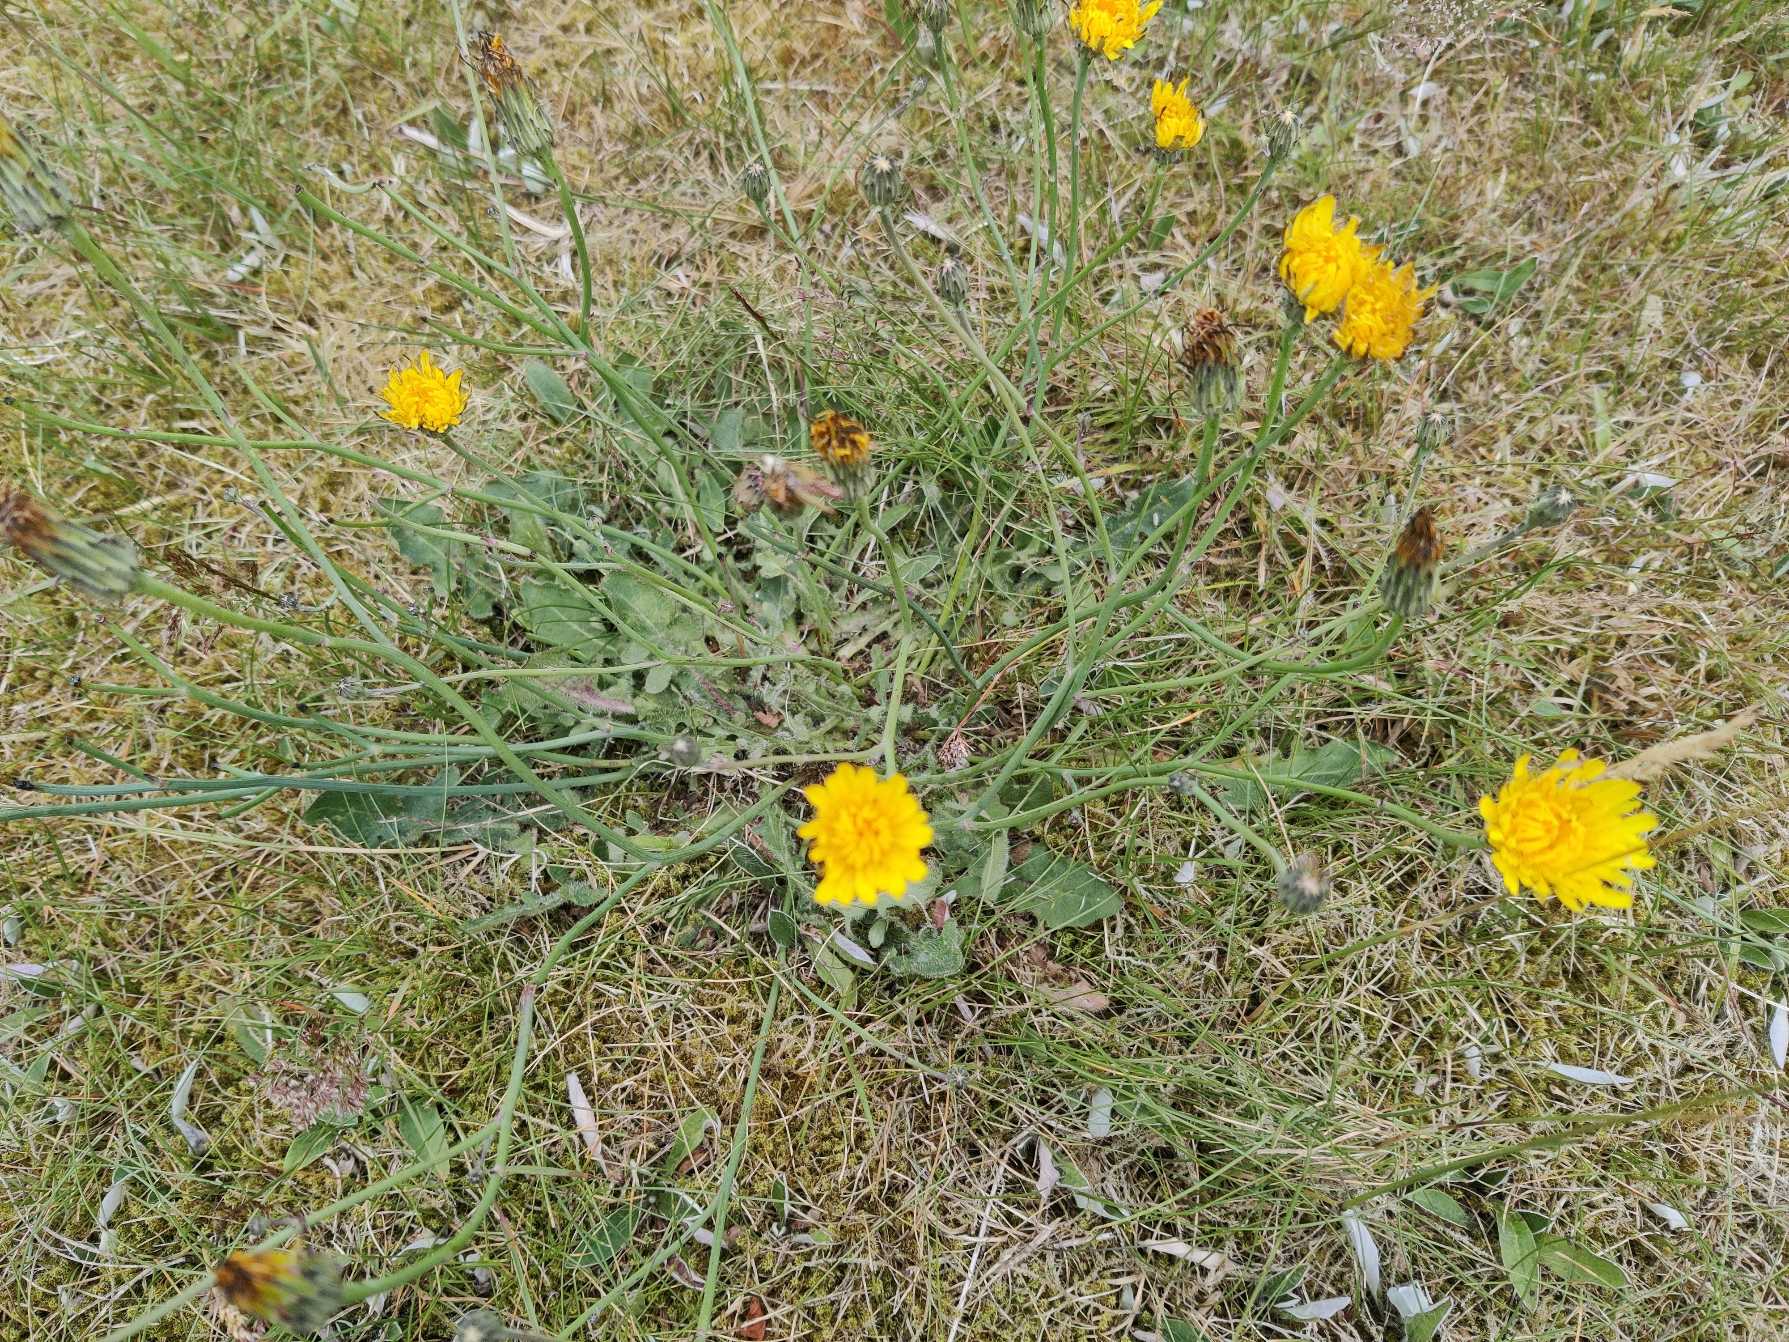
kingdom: Plantae
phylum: Tracheophyta
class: Magnoliopsida
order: Asterales
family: Asteraceae
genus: Hypochaeris
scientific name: Hypochaeris radicata
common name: Almindelig kongepen
